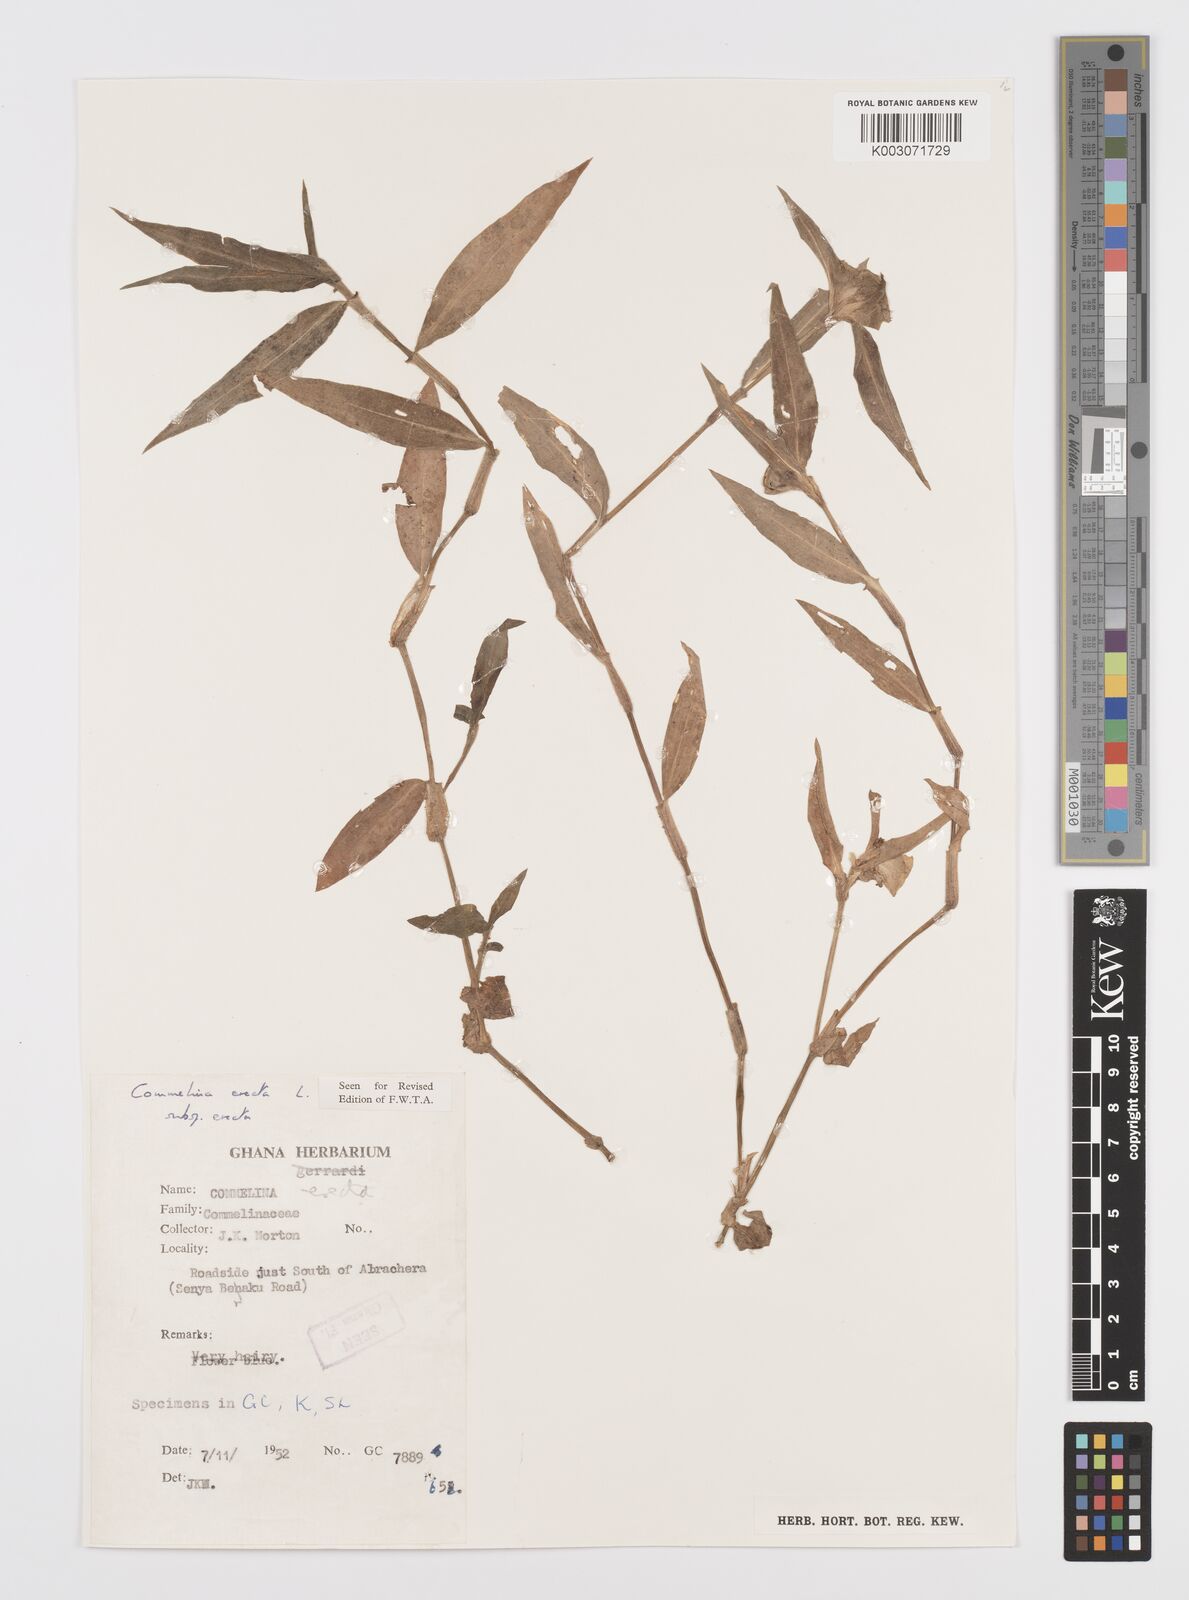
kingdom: Plantae
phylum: Tracheophyta
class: Liliopsida
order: Commelinales
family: Commelinaceae
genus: Commelina
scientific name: Commelina erecta
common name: Blousel blommetjie
